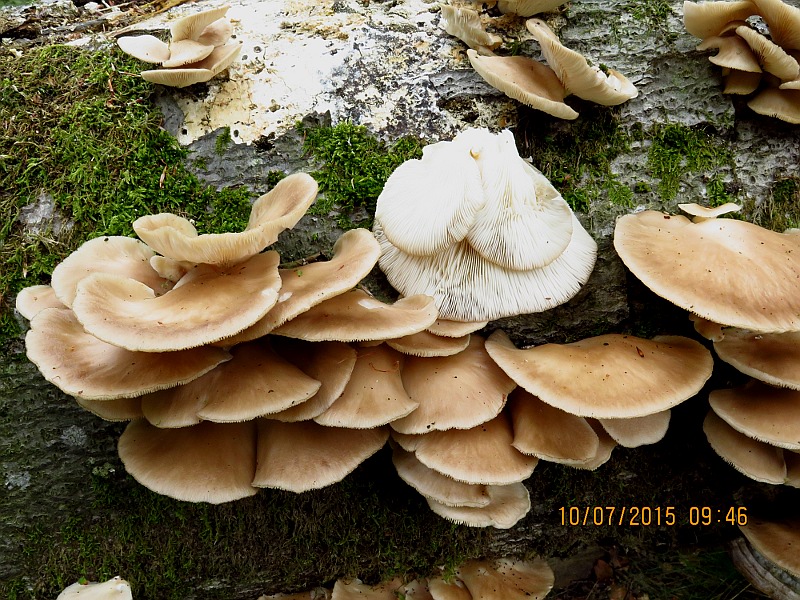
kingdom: Fungi
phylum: Basidiomycota
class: Agaricomycetes
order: Agaricales
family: Pleurotaceae
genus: Pleurotus
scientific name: Pleurotus pulmonarius
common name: sommer-østershat
